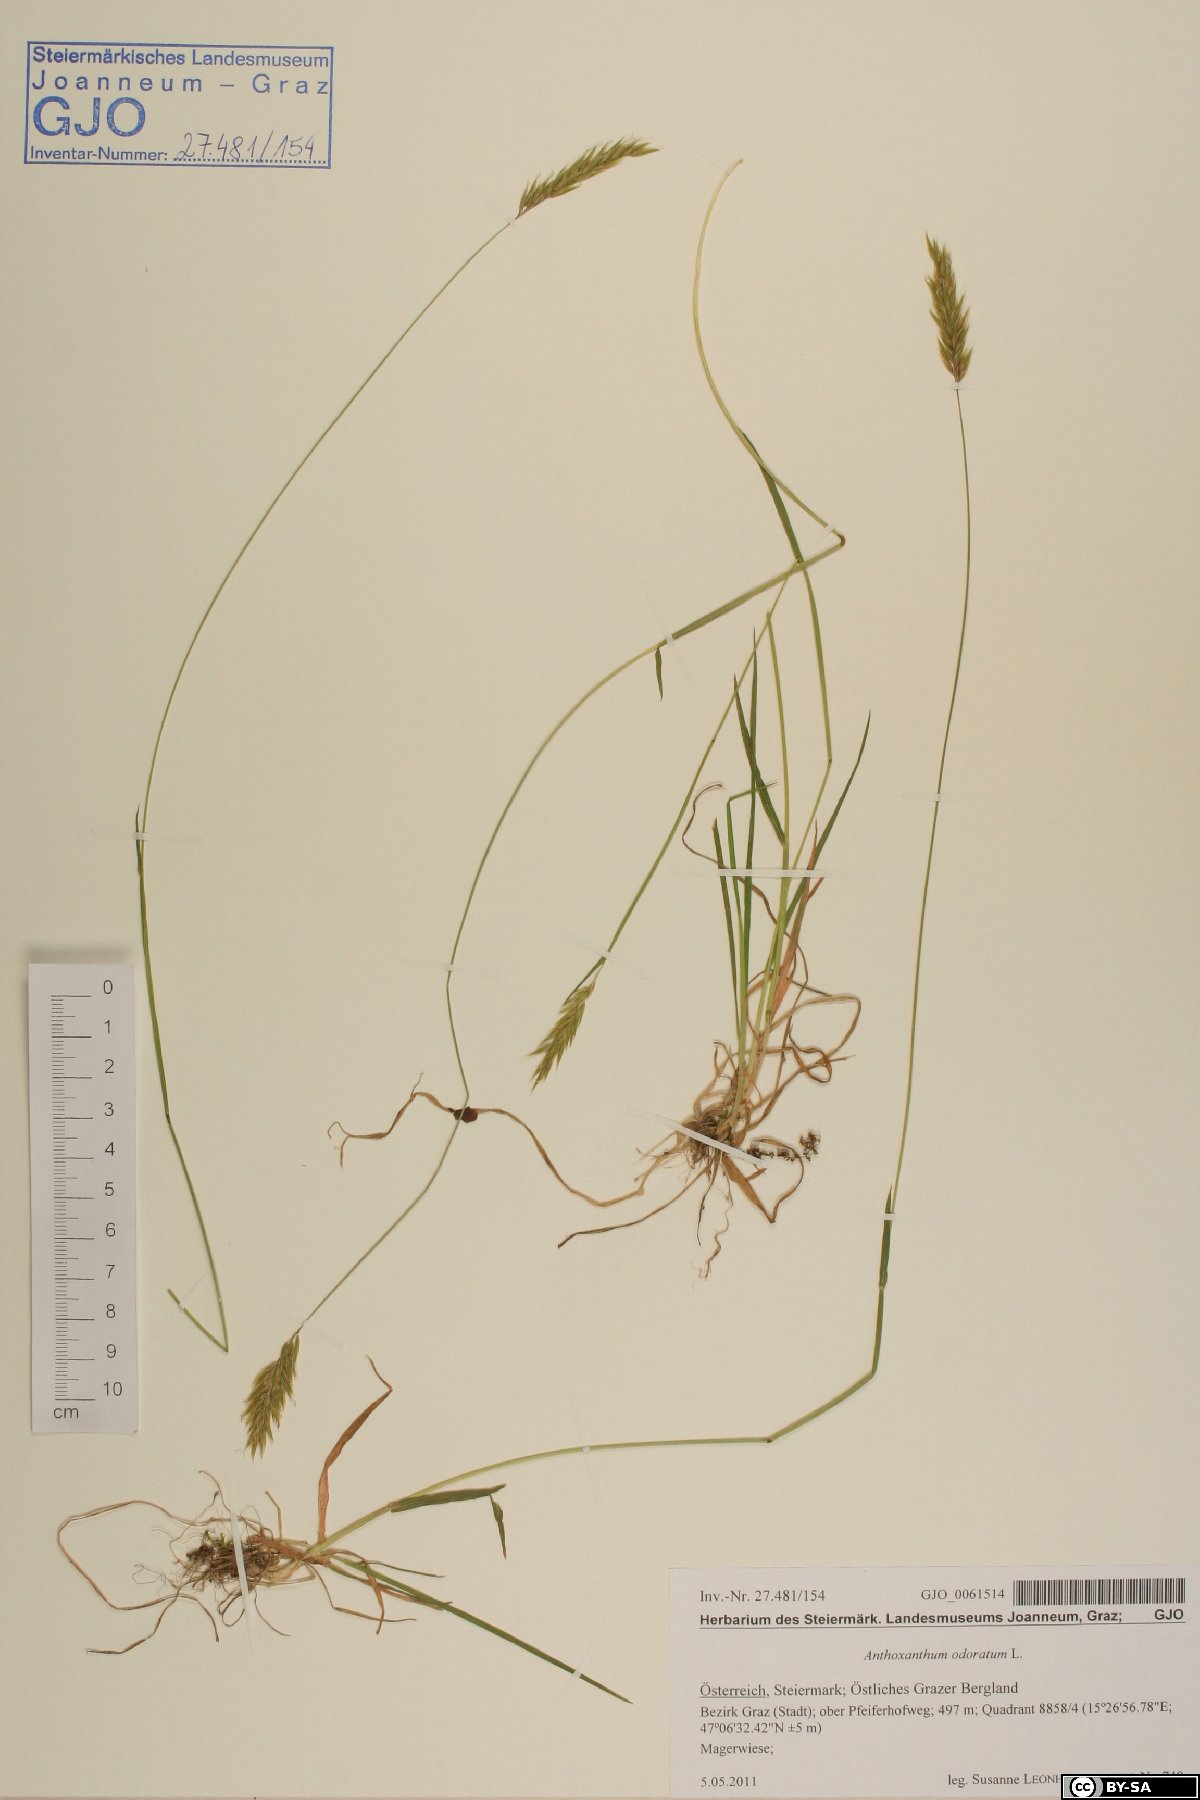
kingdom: Plantae
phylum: Tracheophyta
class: Liliopsida
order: Poales
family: Poaceae
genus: Anthoxanthum
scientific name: Anthoxanthum odoratum
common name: Sweet vernalgrass
